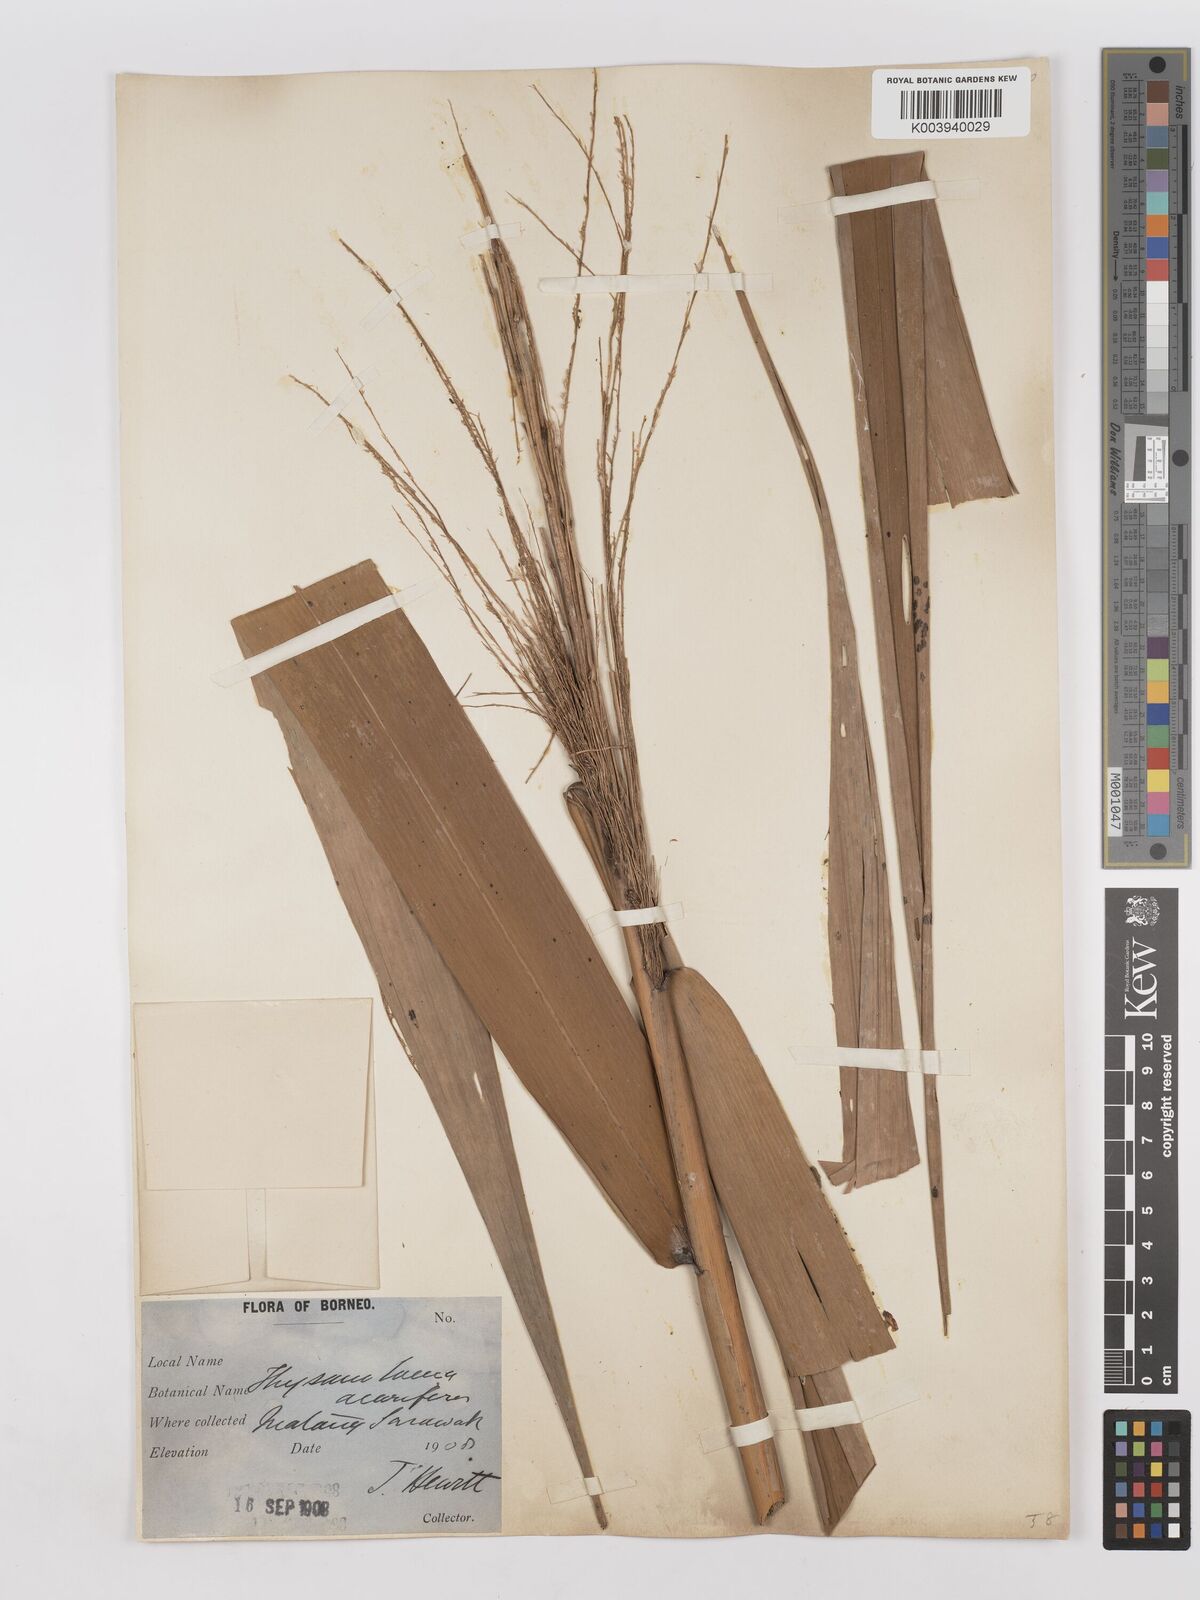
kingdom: Plantae
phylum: Tracheophyta
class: Liliopsida
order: Poales
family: Poaceae
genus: Thysanolaena
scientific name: Thysanolaena latifolia
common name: Tiger grass
